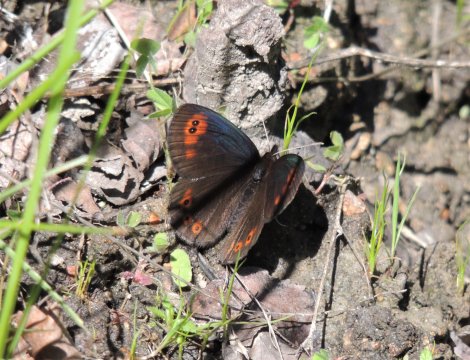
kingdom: Animalia
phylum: Arthropoda
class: Insecta
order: Lepidoptera
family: Nymphalidae
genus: Erebia
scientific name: Erebia epipsodea
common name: Common Alpine
